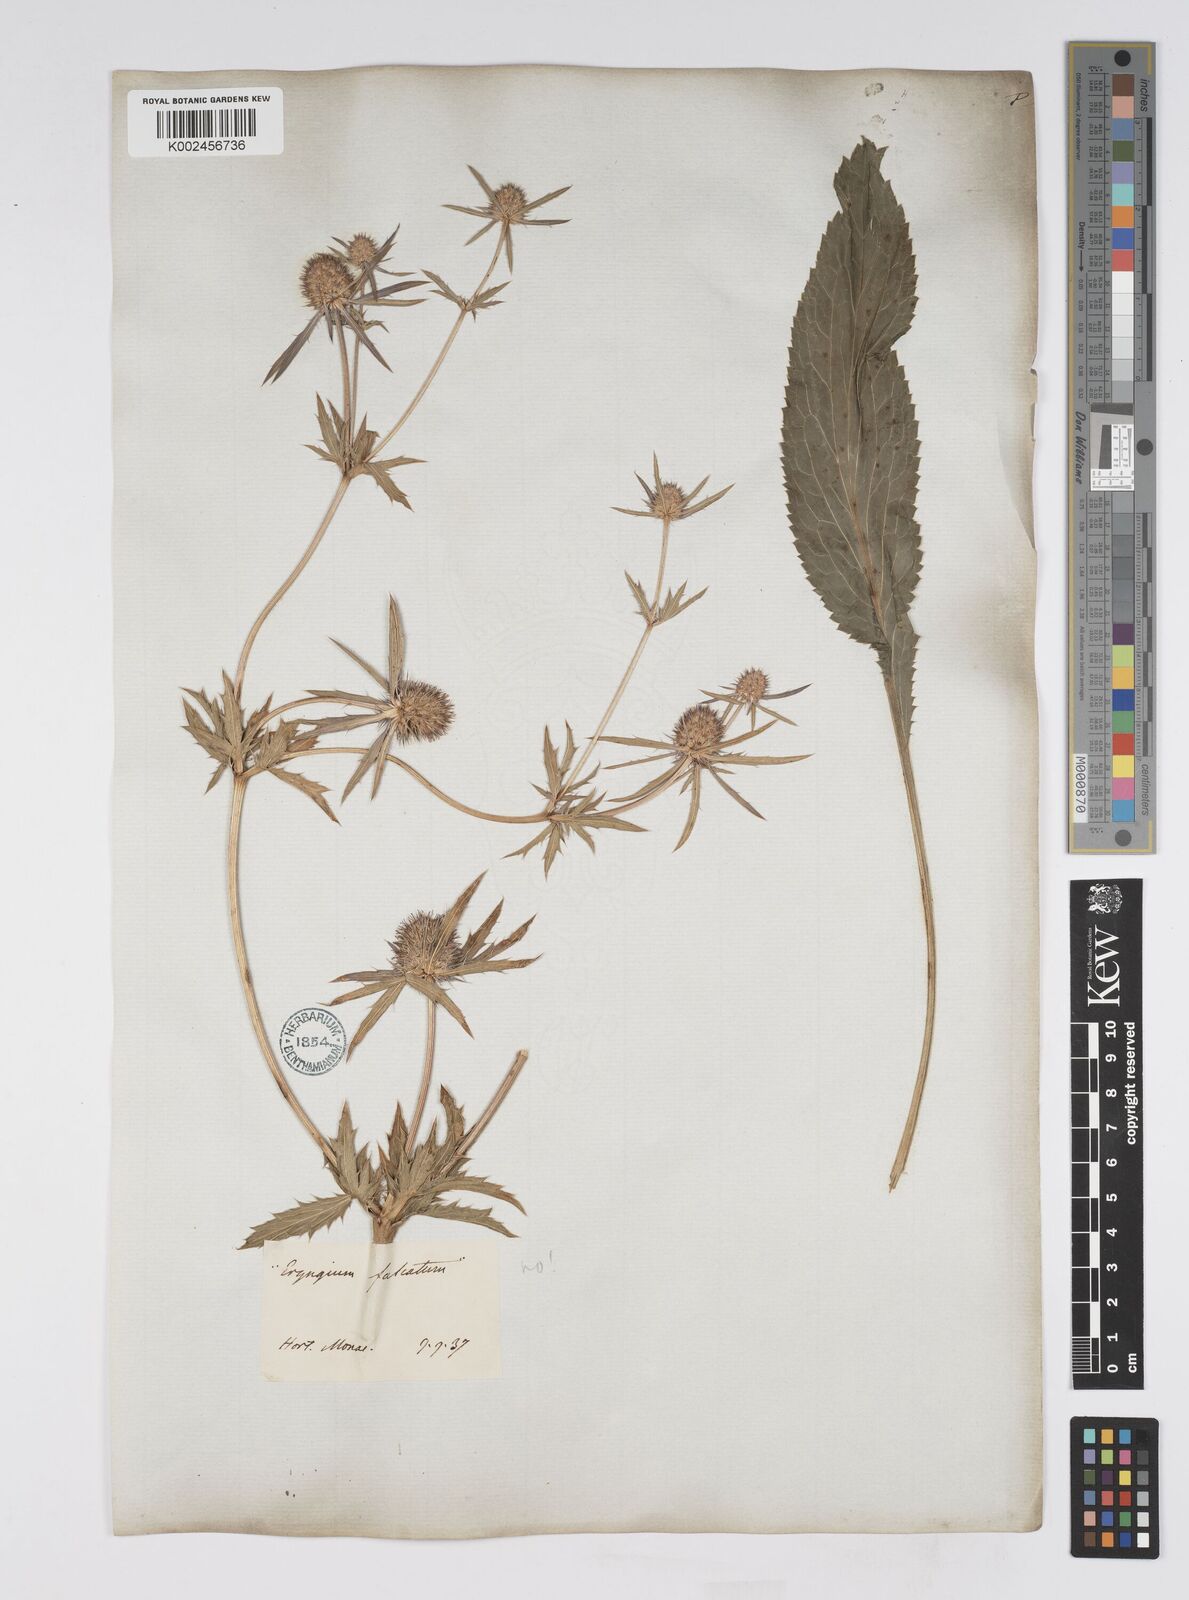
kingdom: Plantae
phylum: Tracheophyta
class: Magnoliopsida
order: Apiales
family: Apiaceae
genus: Eryngium
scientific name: Eryngium falcatum
